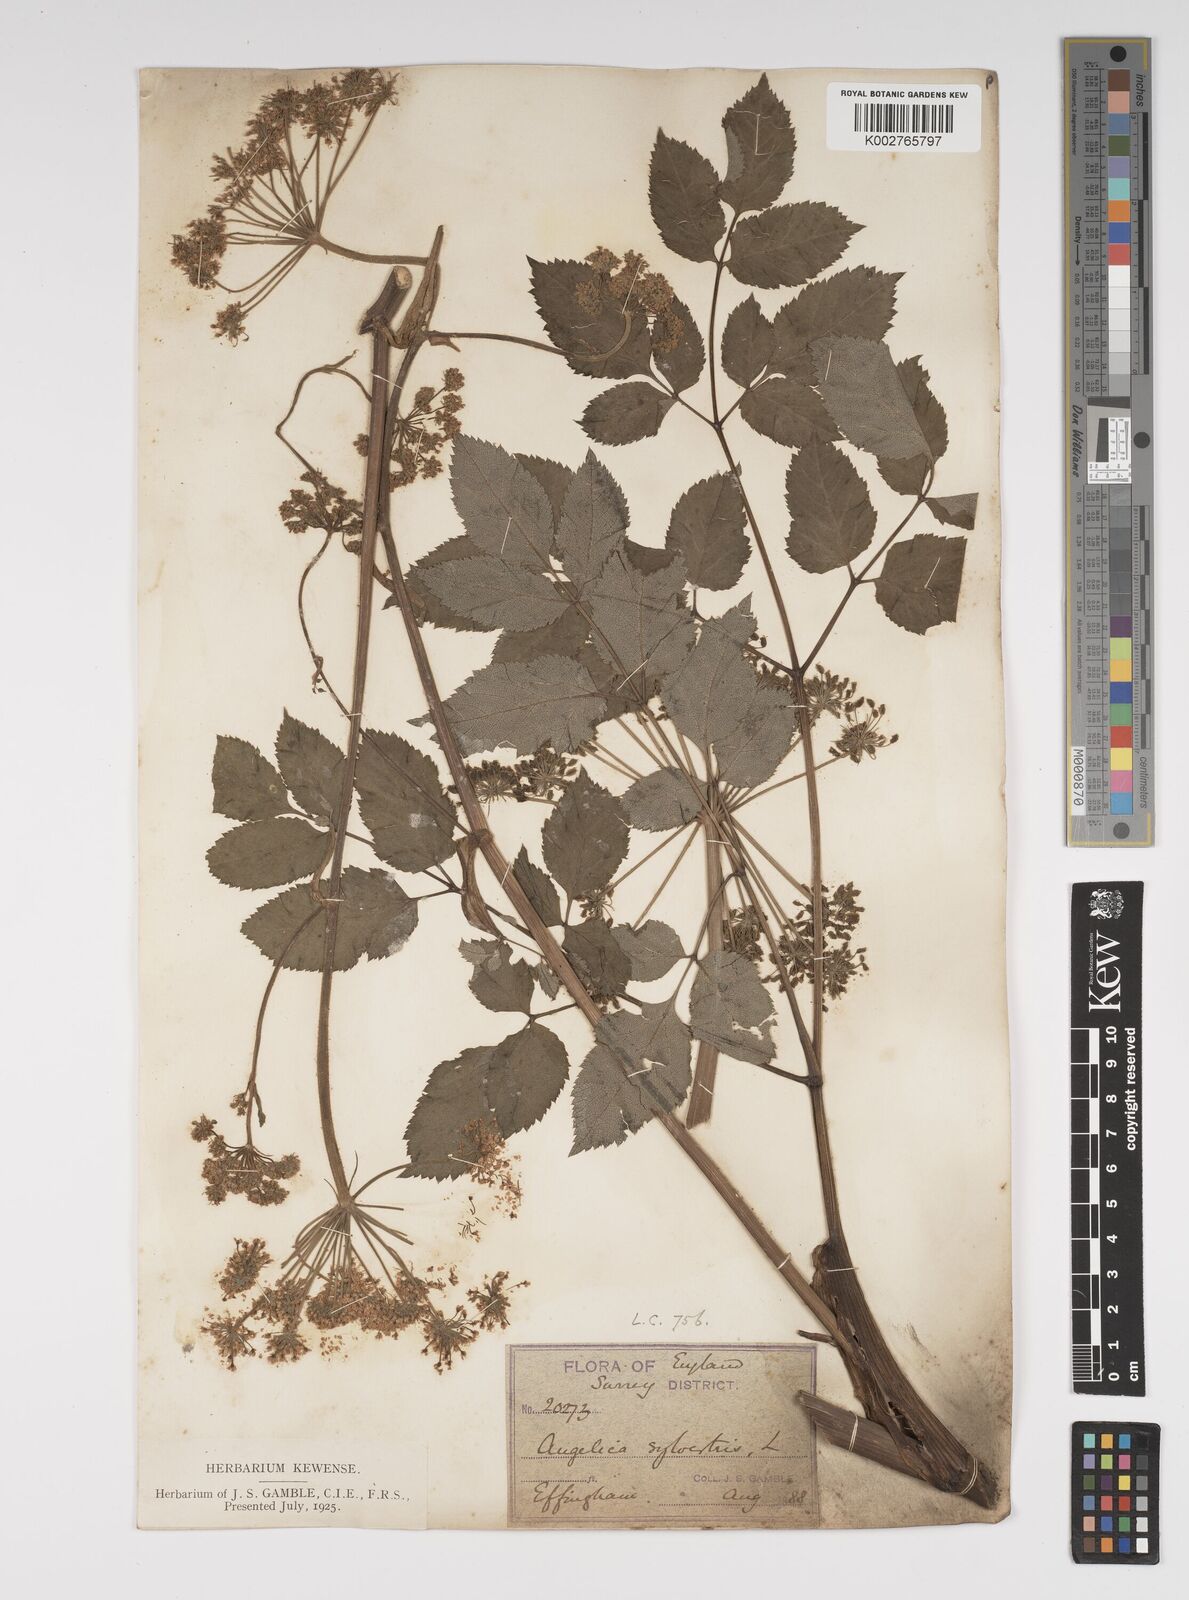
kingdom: Plantae
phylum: Tracheophyta
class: Magnoliopsida
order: Apiales
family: Apiaceae
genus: Angelica
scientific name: Angelica sylvestris
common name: Wild angelica
